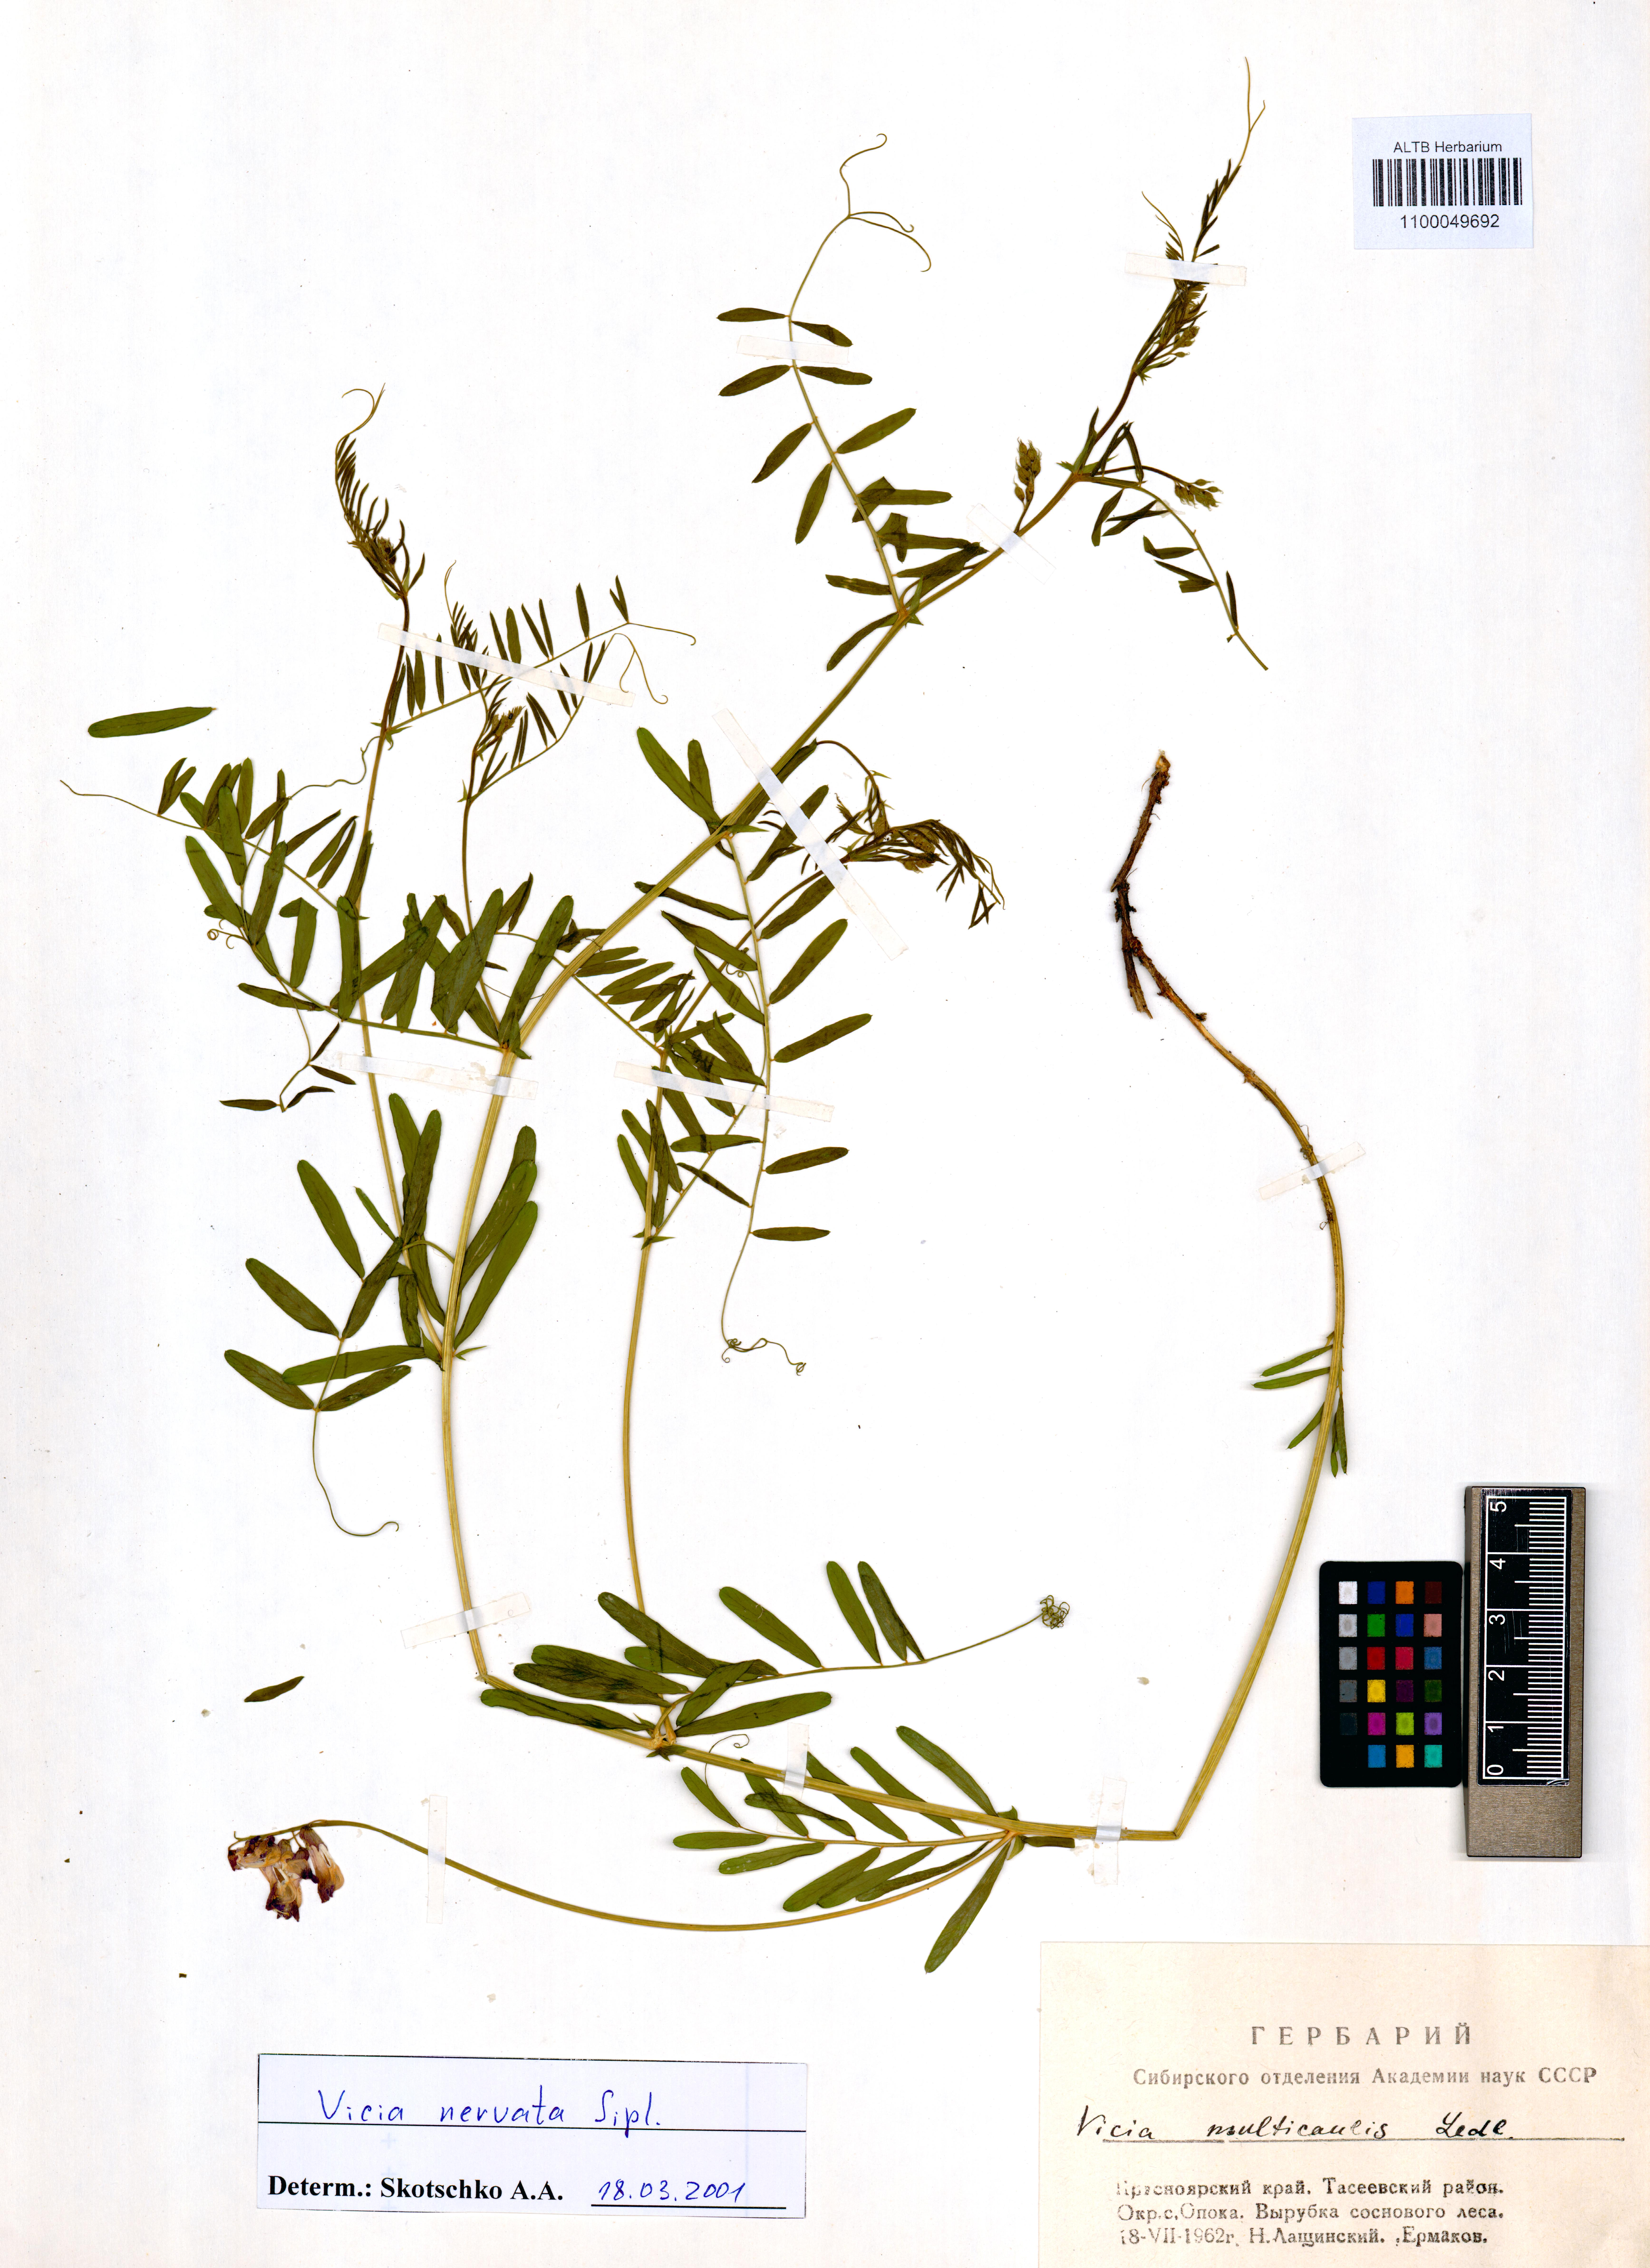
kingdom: Plantae
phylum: Tracheophyta
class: Magnoliopsida
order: Fabales
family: Fabaceae
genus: Vicia
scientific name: Vicia multicaulis
